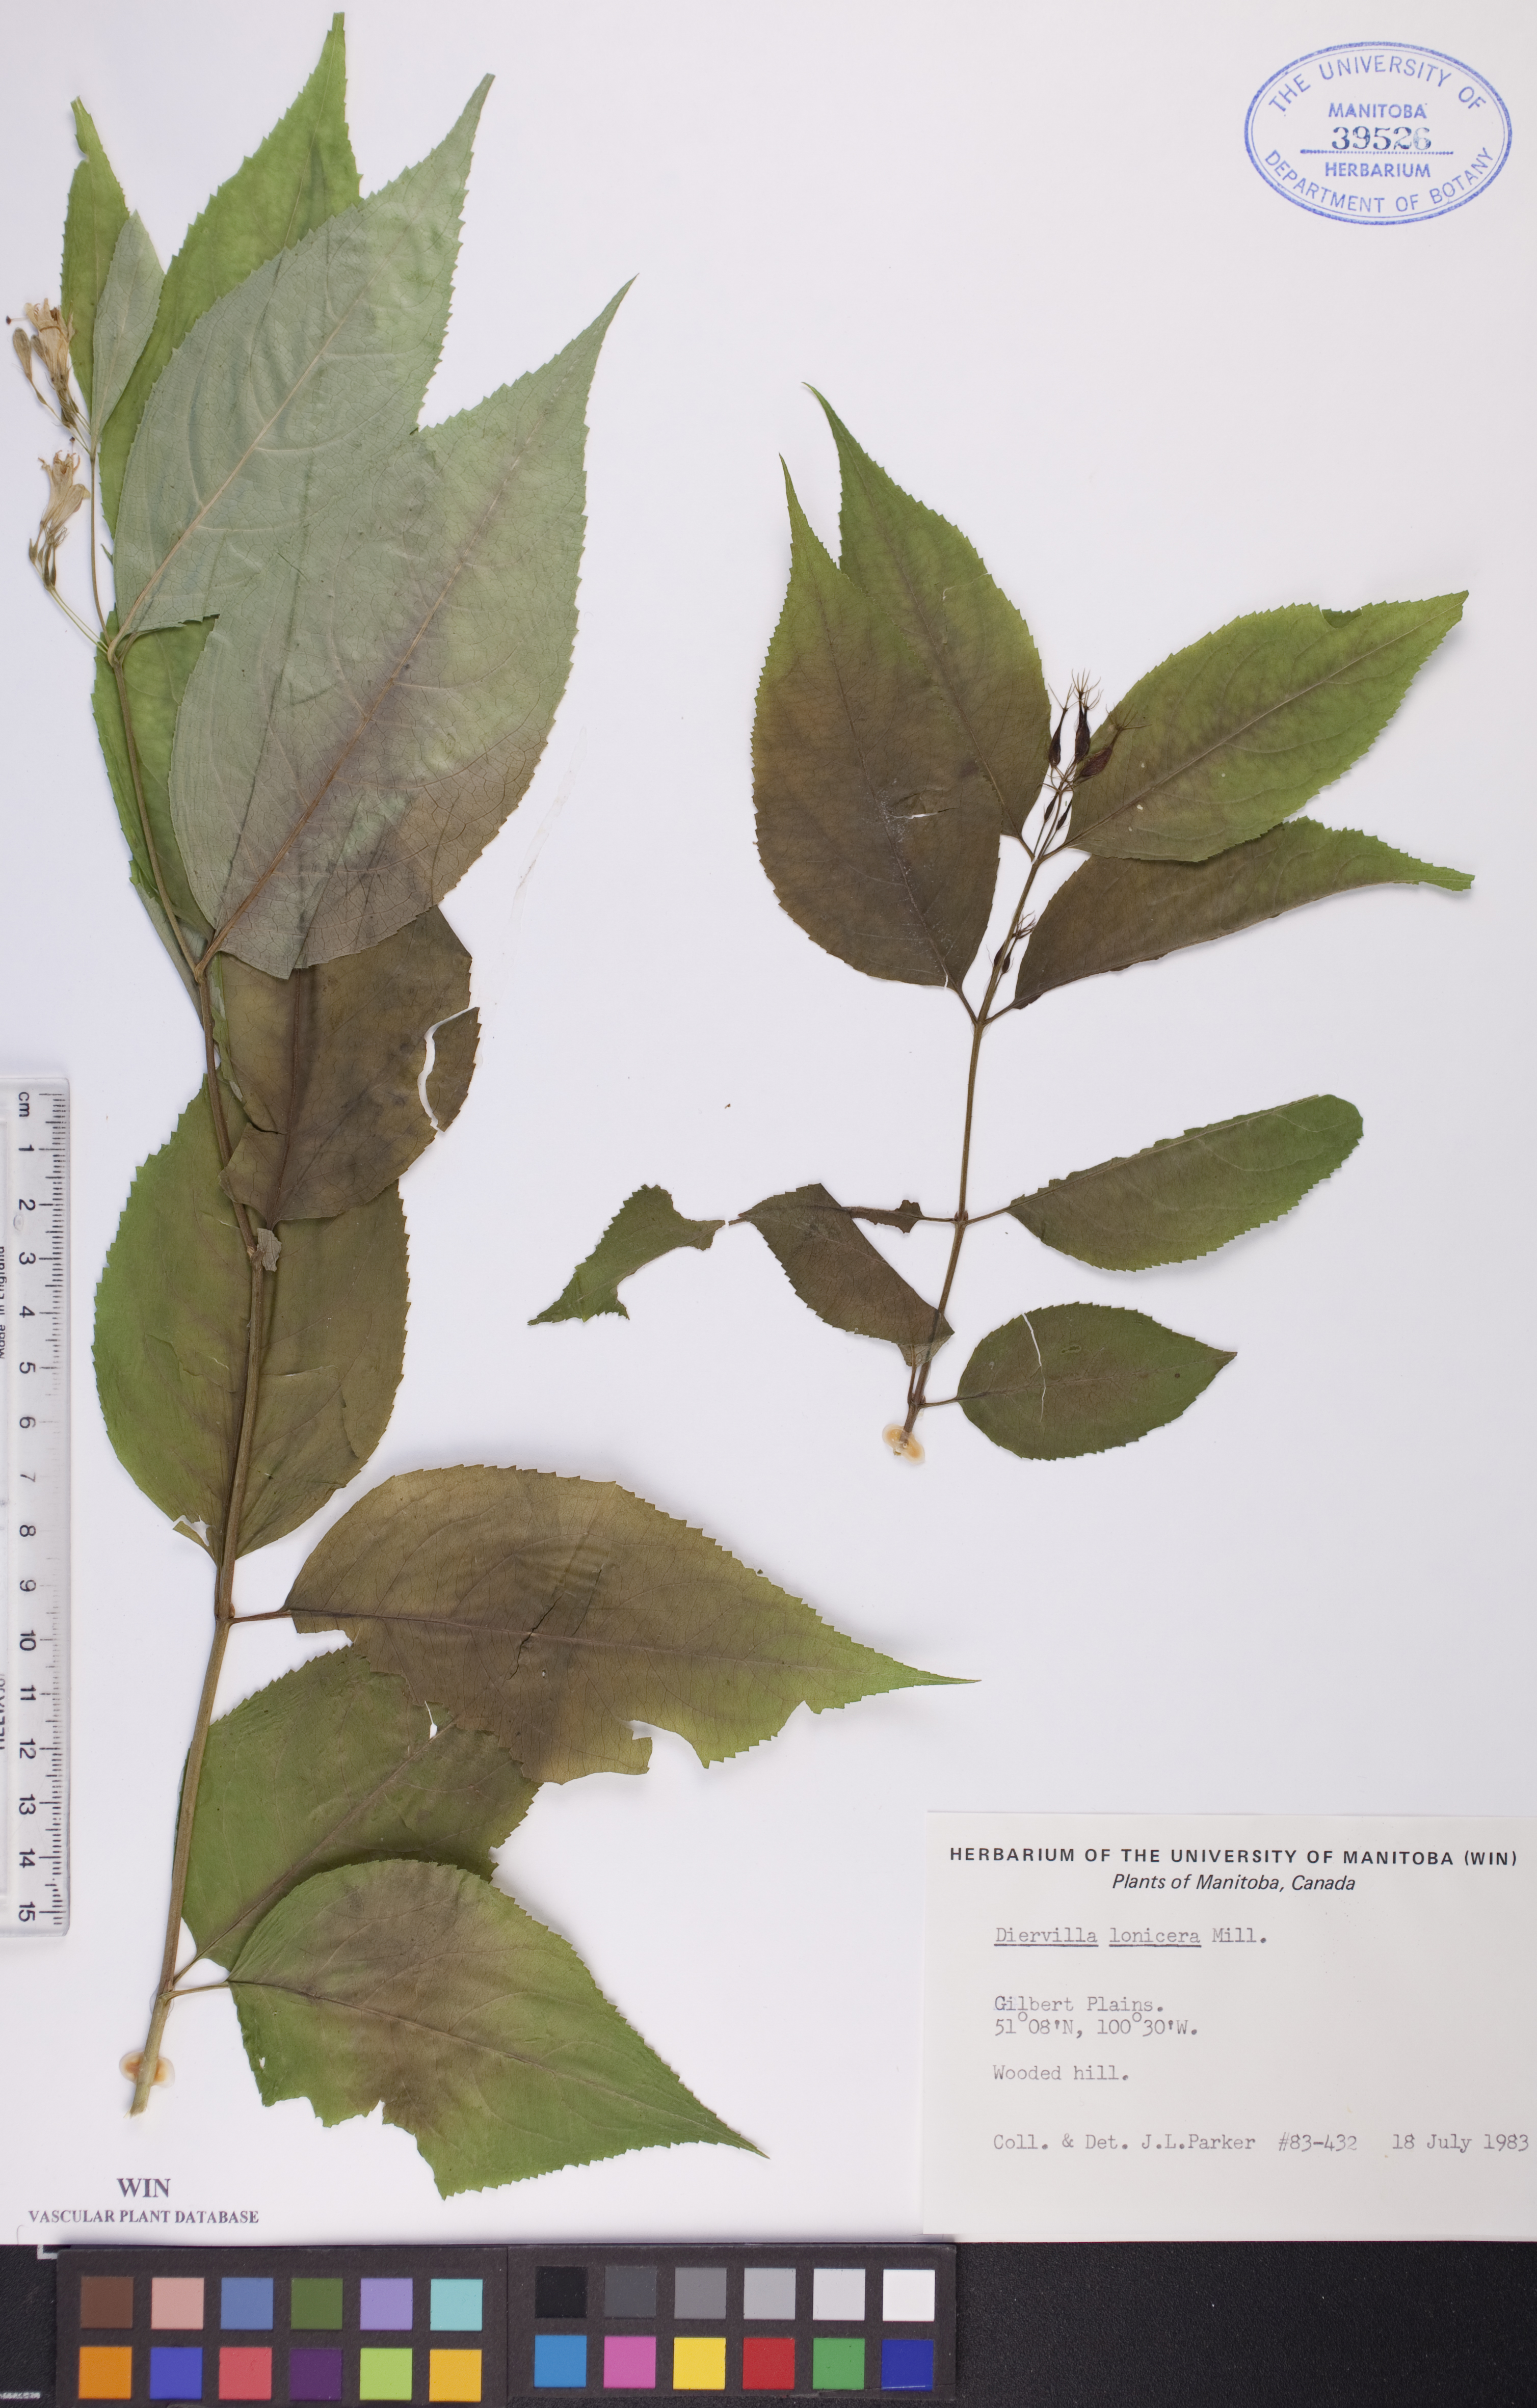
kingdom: Plantae
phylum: Tracheophyta
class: Magnoliopsida
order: Dipsacales
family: Caprifoliaceae
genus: Diervilla
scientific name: Diervilla lonicera
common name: Bush-honeysuckle
